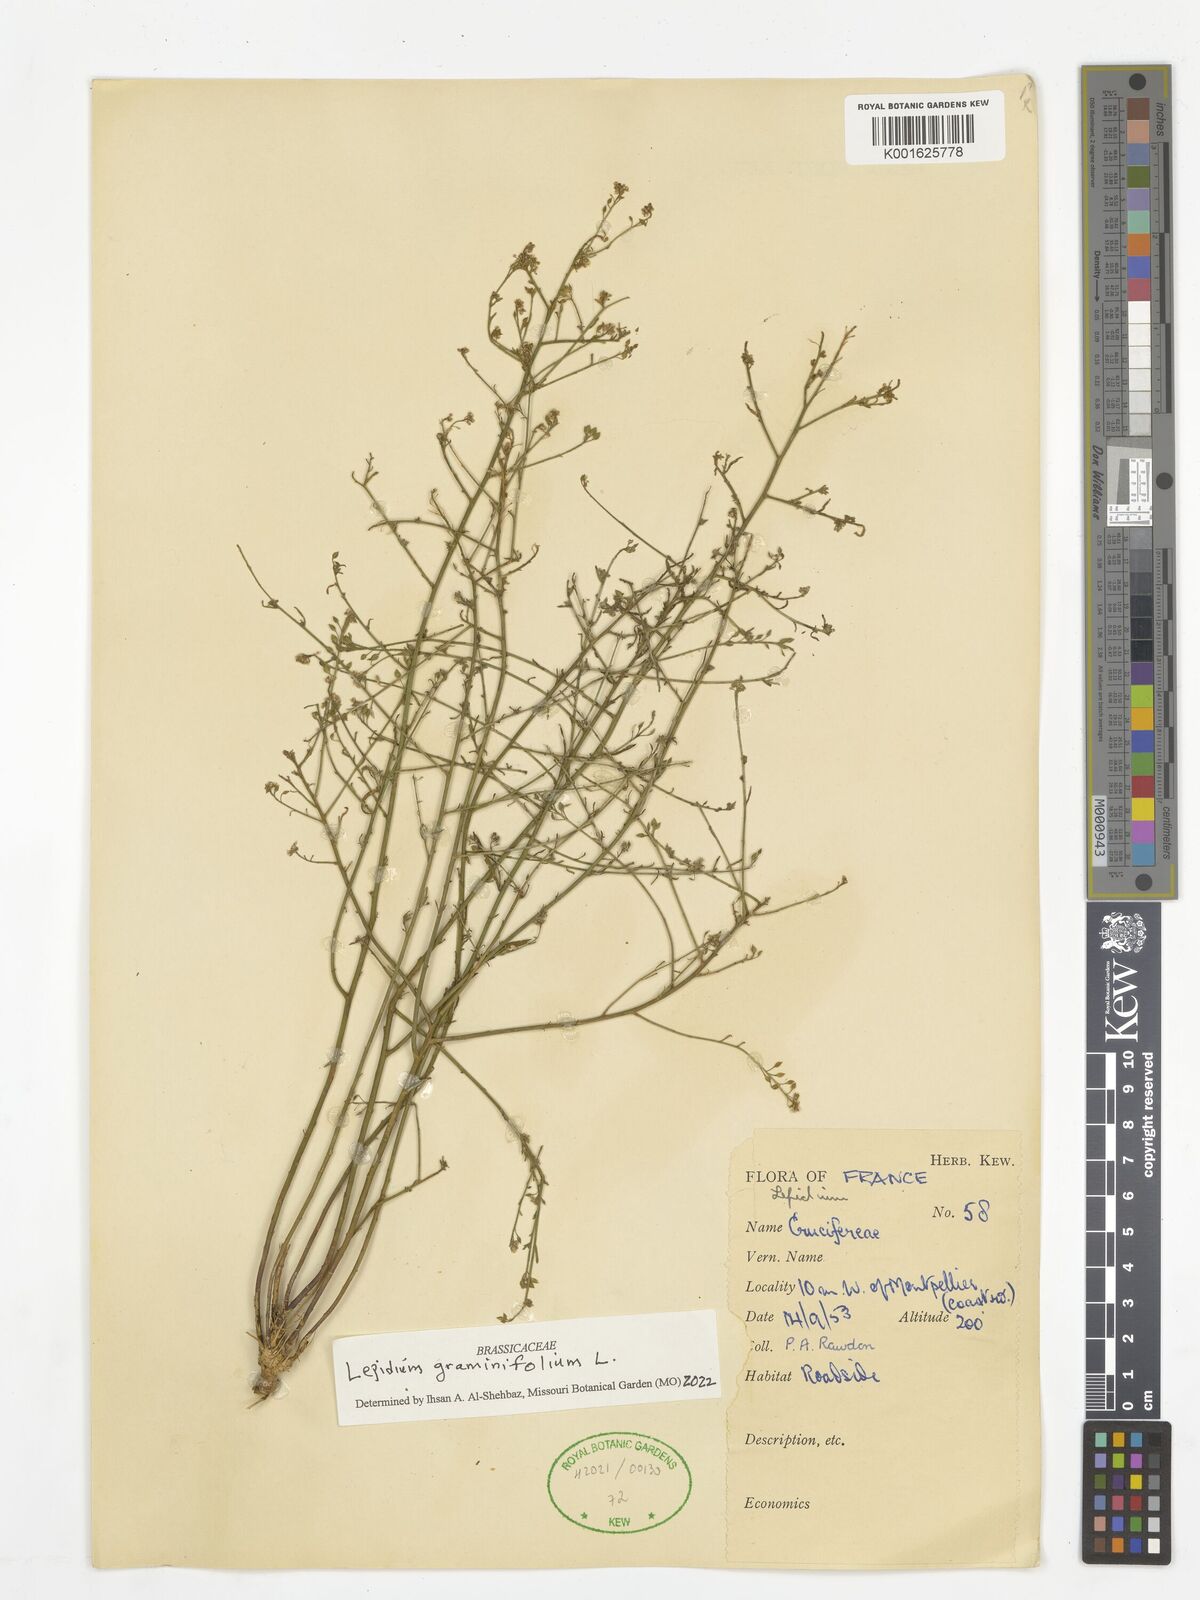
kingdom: Plantae
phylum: Tracheophyta
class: Magnoliopsida
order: Brassicales
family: Brassicaceae
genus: Lepidium
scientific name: Lepidium graminifolium
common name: Tall pepperwort
